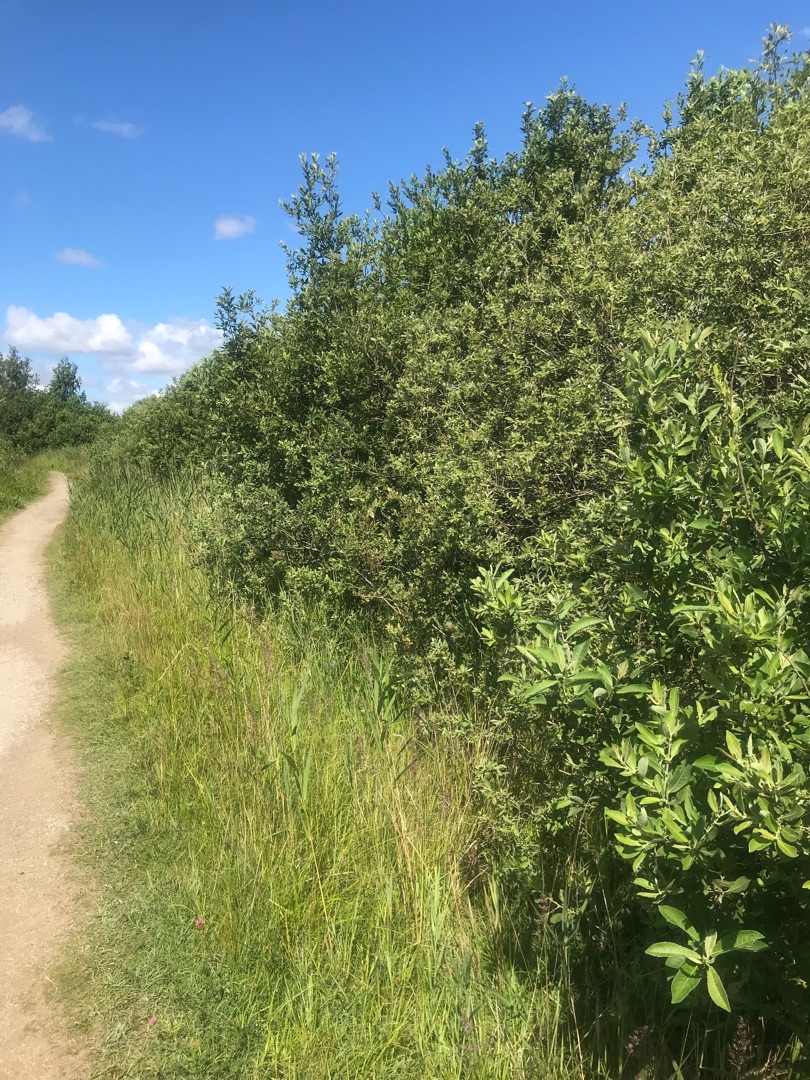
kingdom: Plantae
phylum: Tracheophyta
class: Magnoliopsida
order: Malpighiales
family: Salicaceae
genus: Salix
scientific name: Salix
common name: Pileslægten
